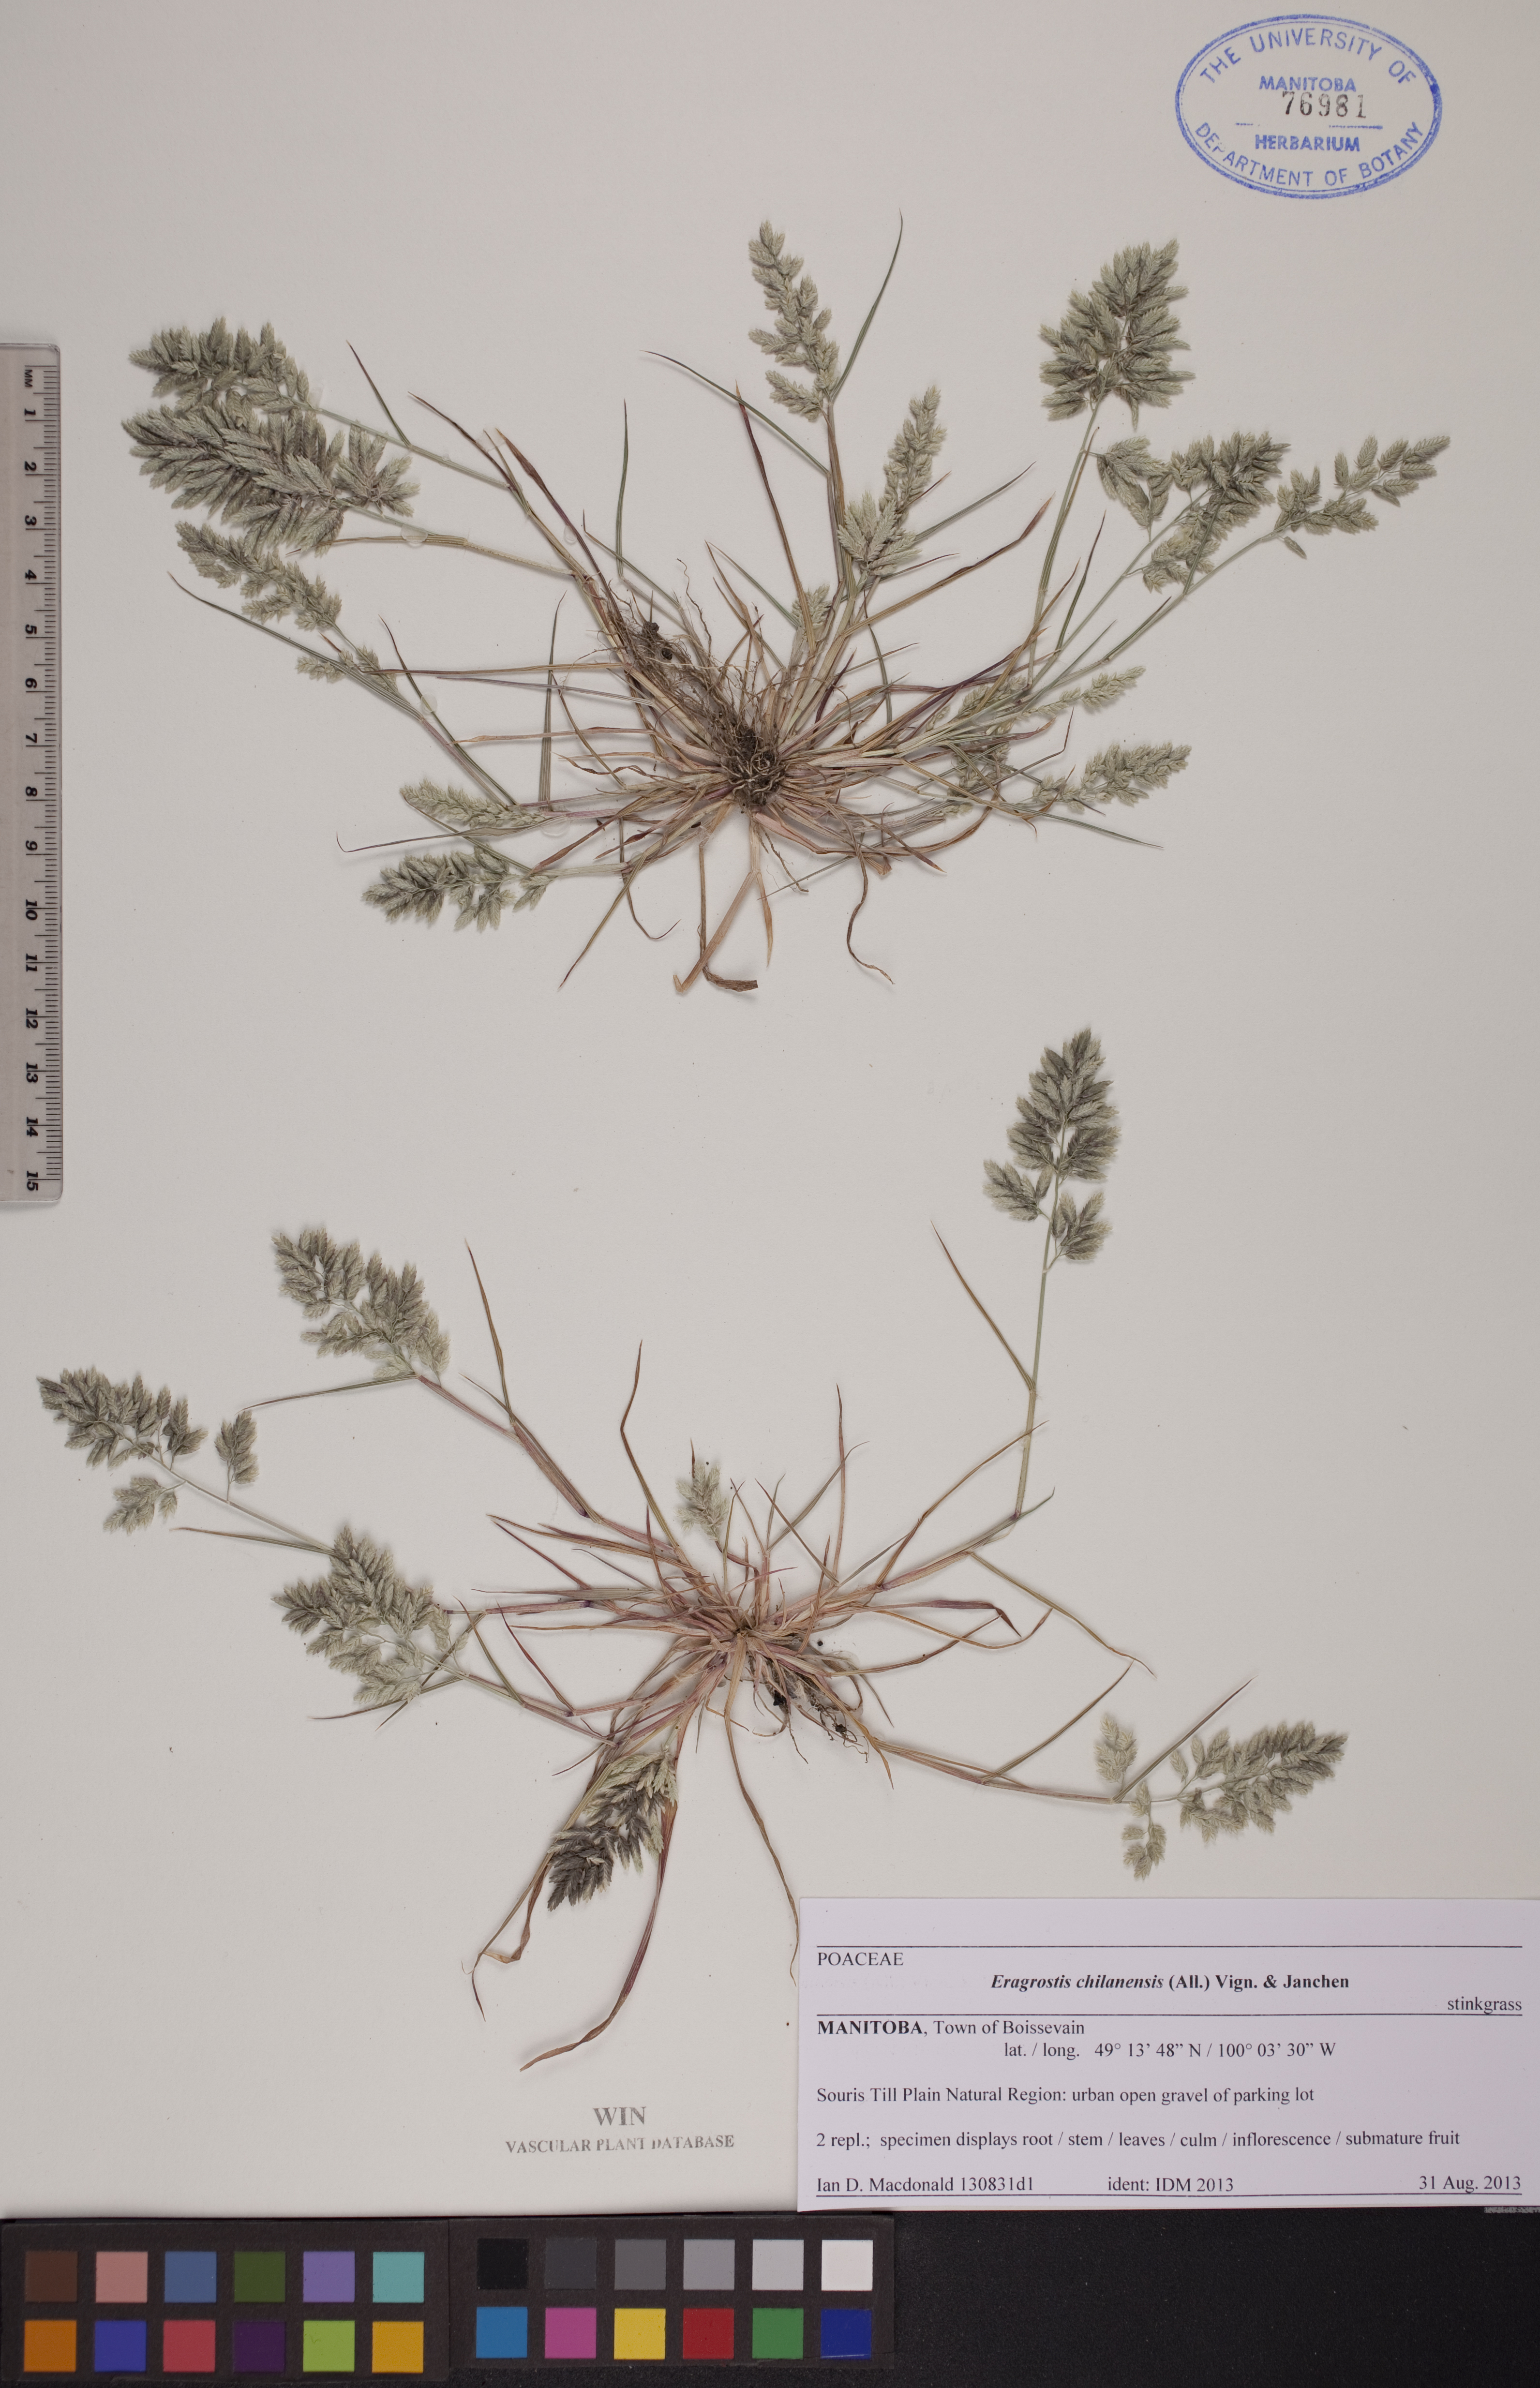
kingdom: Plantae
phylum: Tracheophyta
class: Liliopsida
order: Poales
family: Poaceae
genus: Eragrostis
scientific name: Eragrostis cilianensis
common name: Stinkgrass
